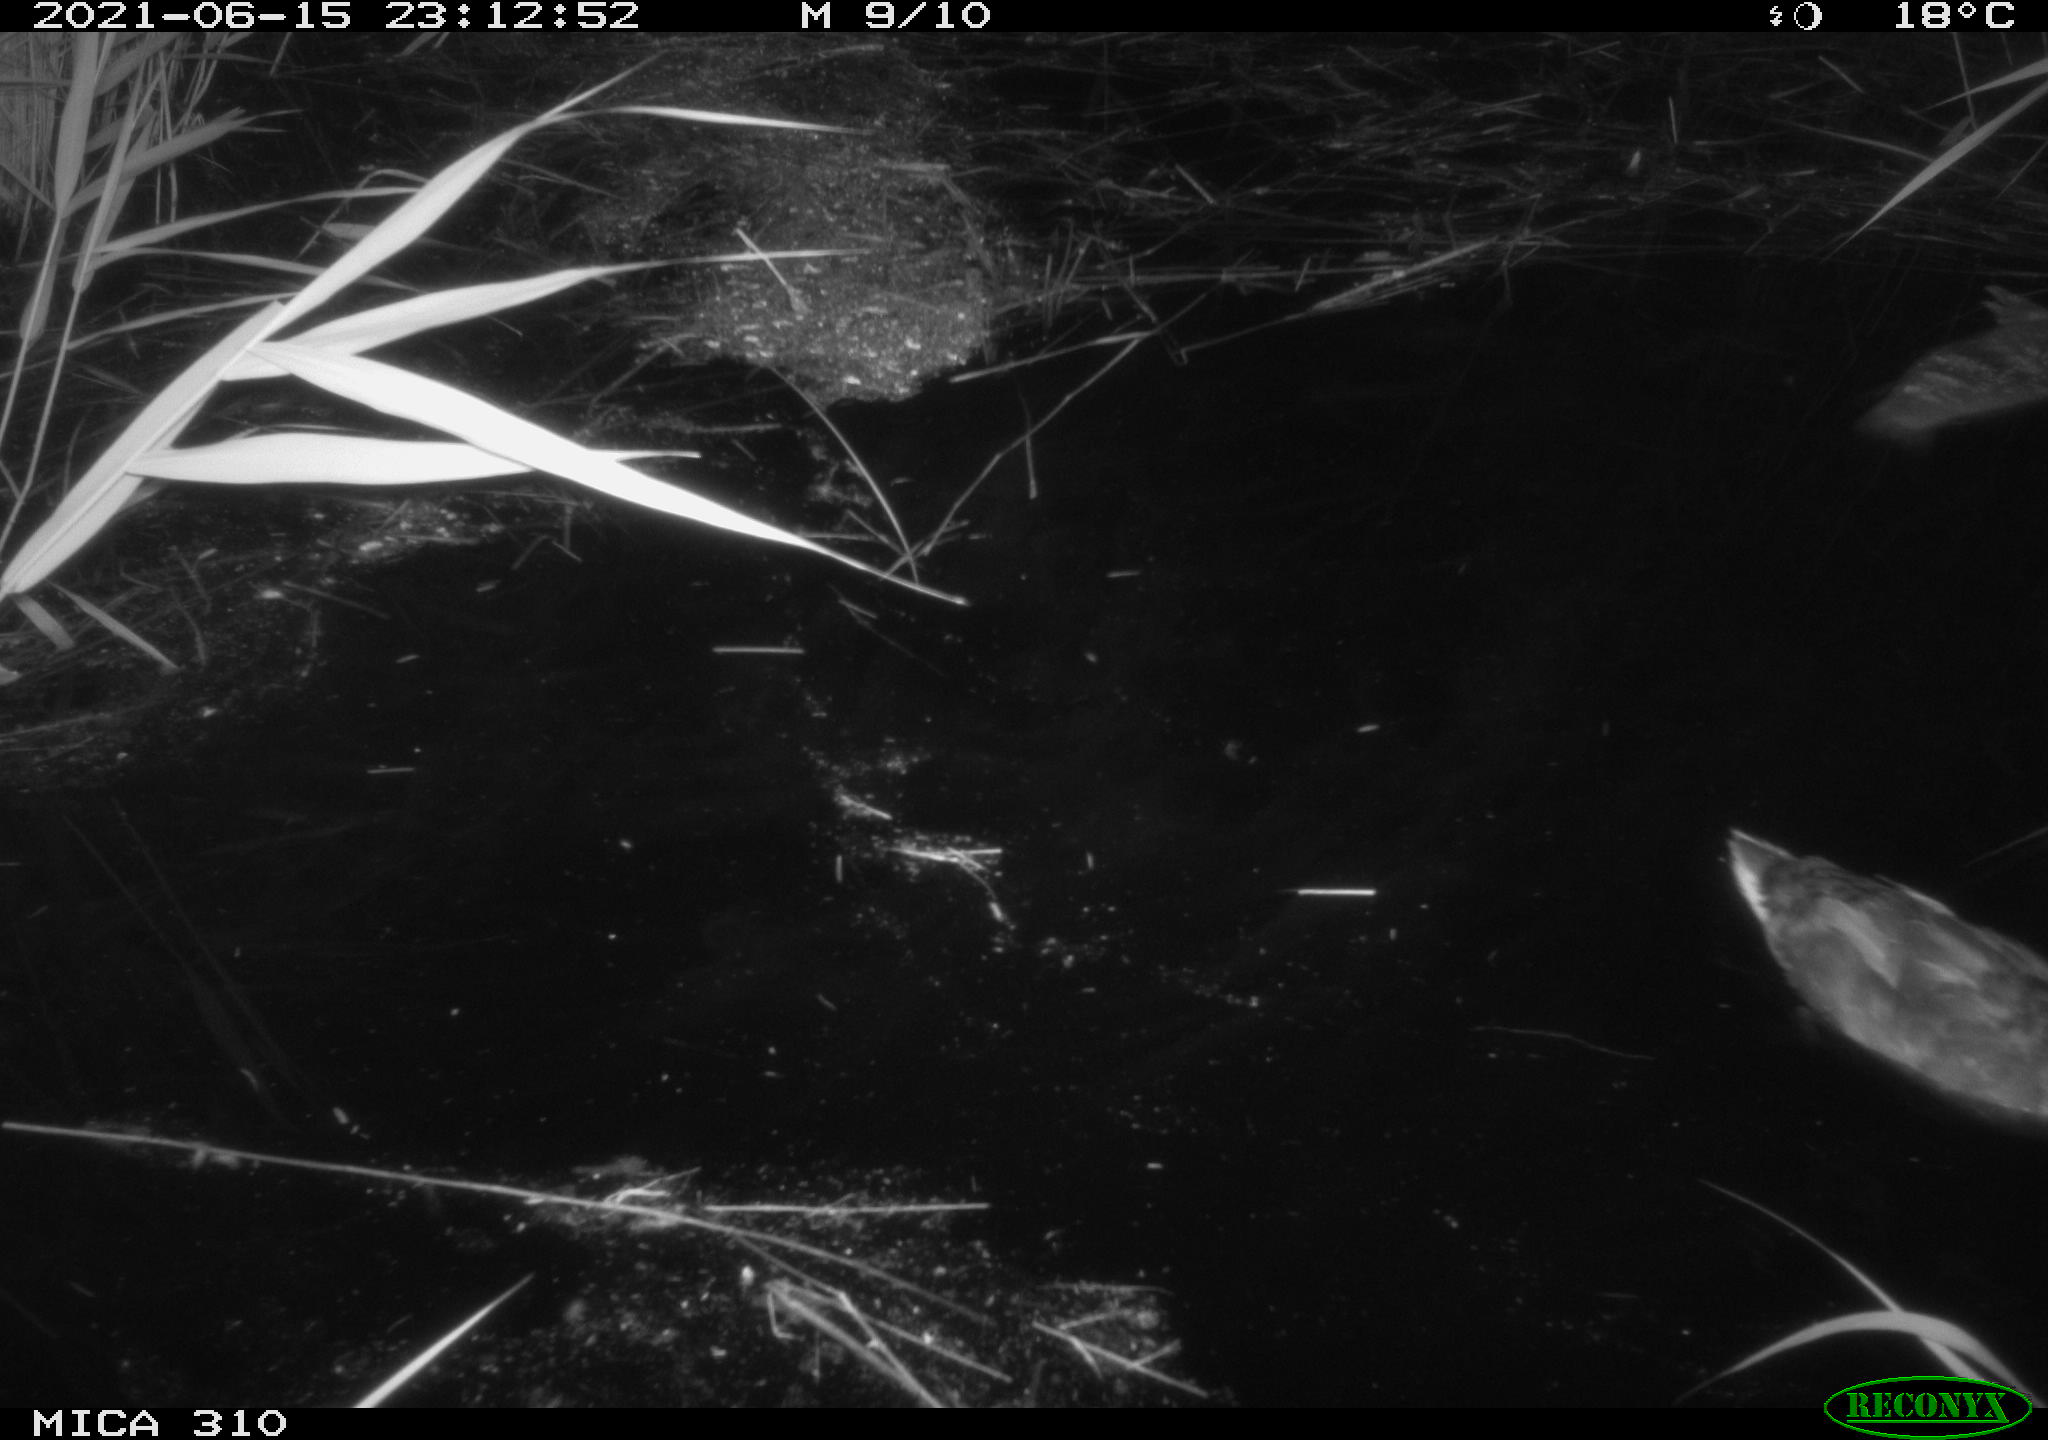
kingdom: Animalia
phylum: Chordata
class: Aves
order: Anseriformes
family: Anatidae
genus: Anas
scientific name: Anas
